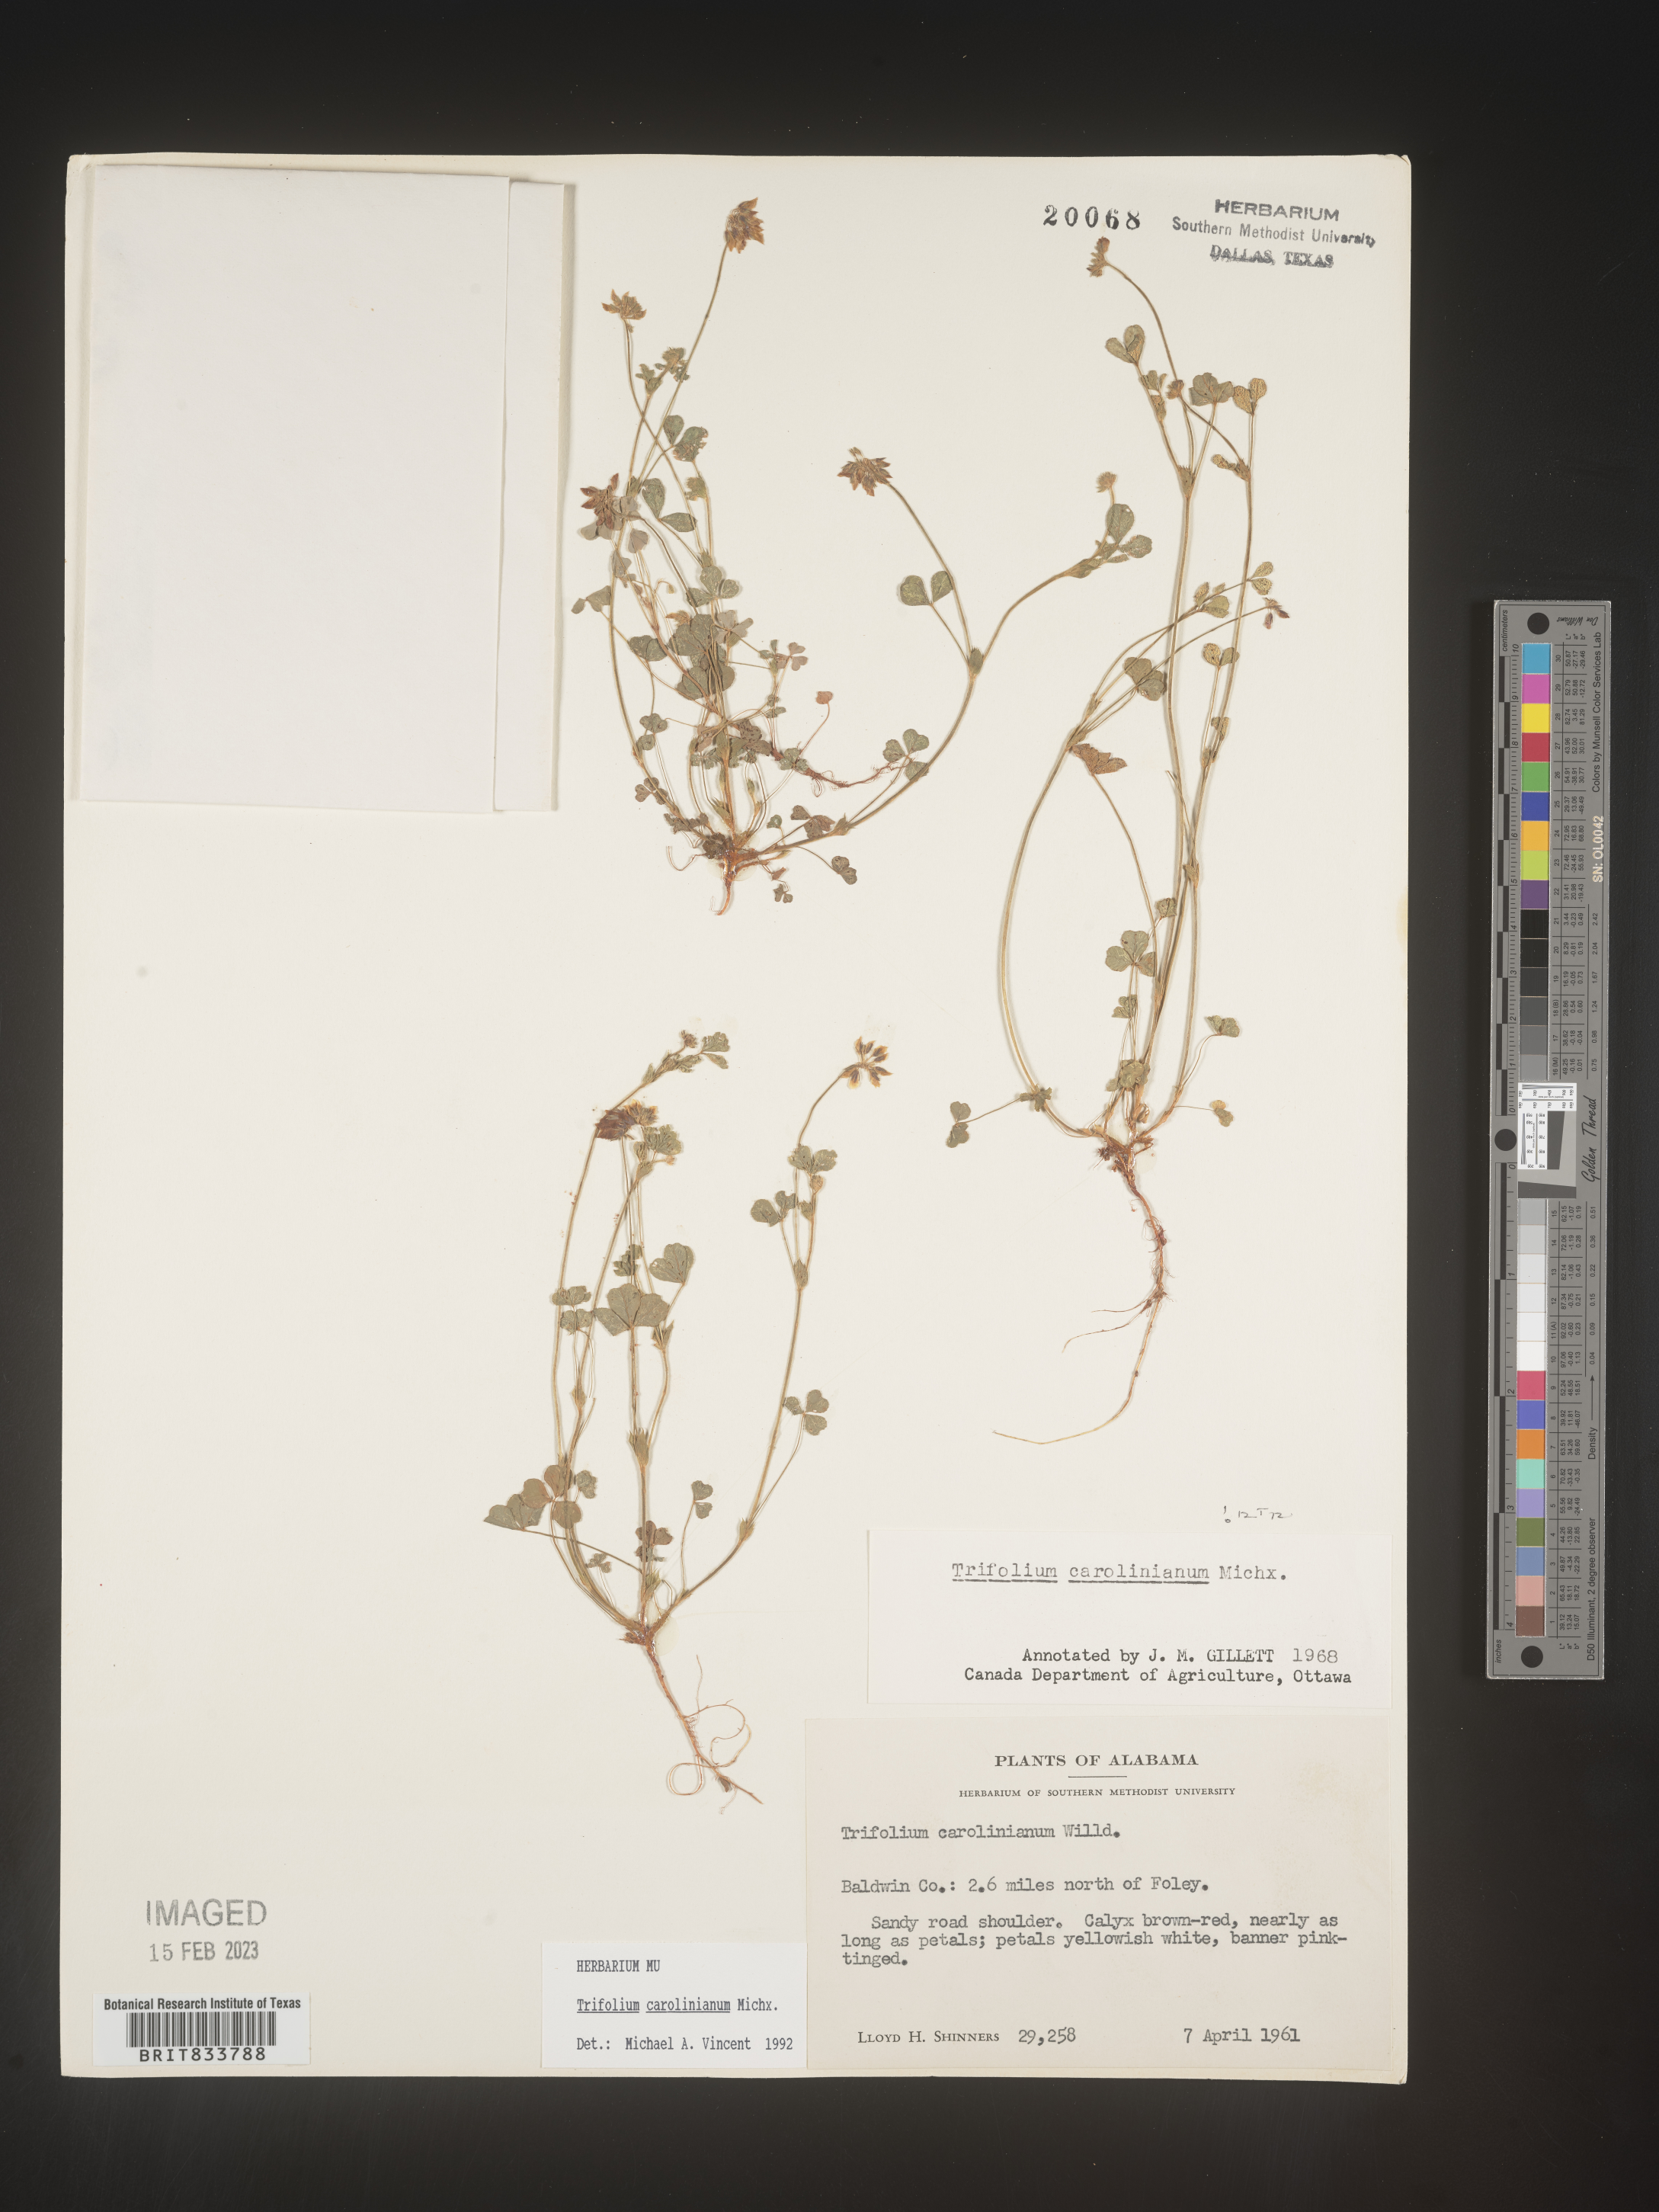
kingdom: Plantae
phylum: Tracheophyta
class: Magnoliopsida
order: Fabales
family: Fabaceae
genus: Trifolium
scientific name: Trifolium carolinianum
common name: Wild white clover
